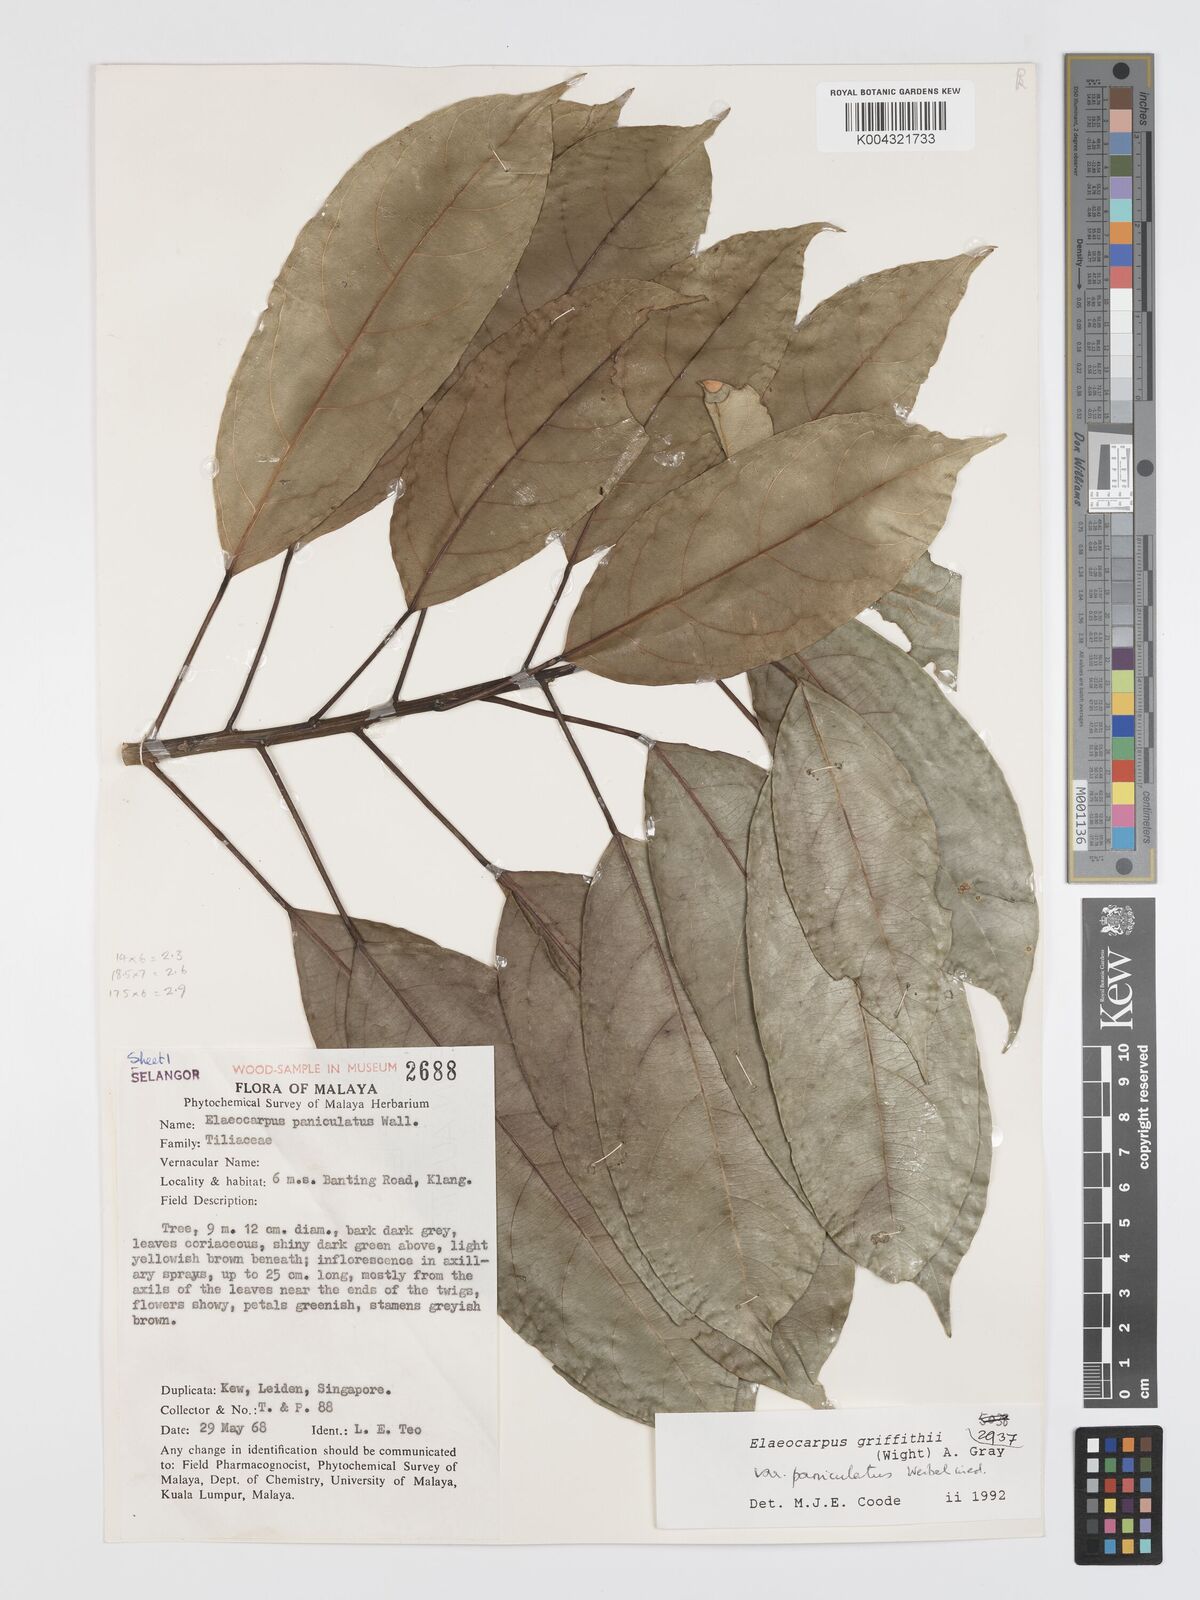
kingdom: Plantae
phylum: Tracheophyta
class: Magnoliopsida
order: Oxalidales
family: Elaeocarpaceae
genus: Elaeocarpus
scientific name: Elaeocarpus griffithii
